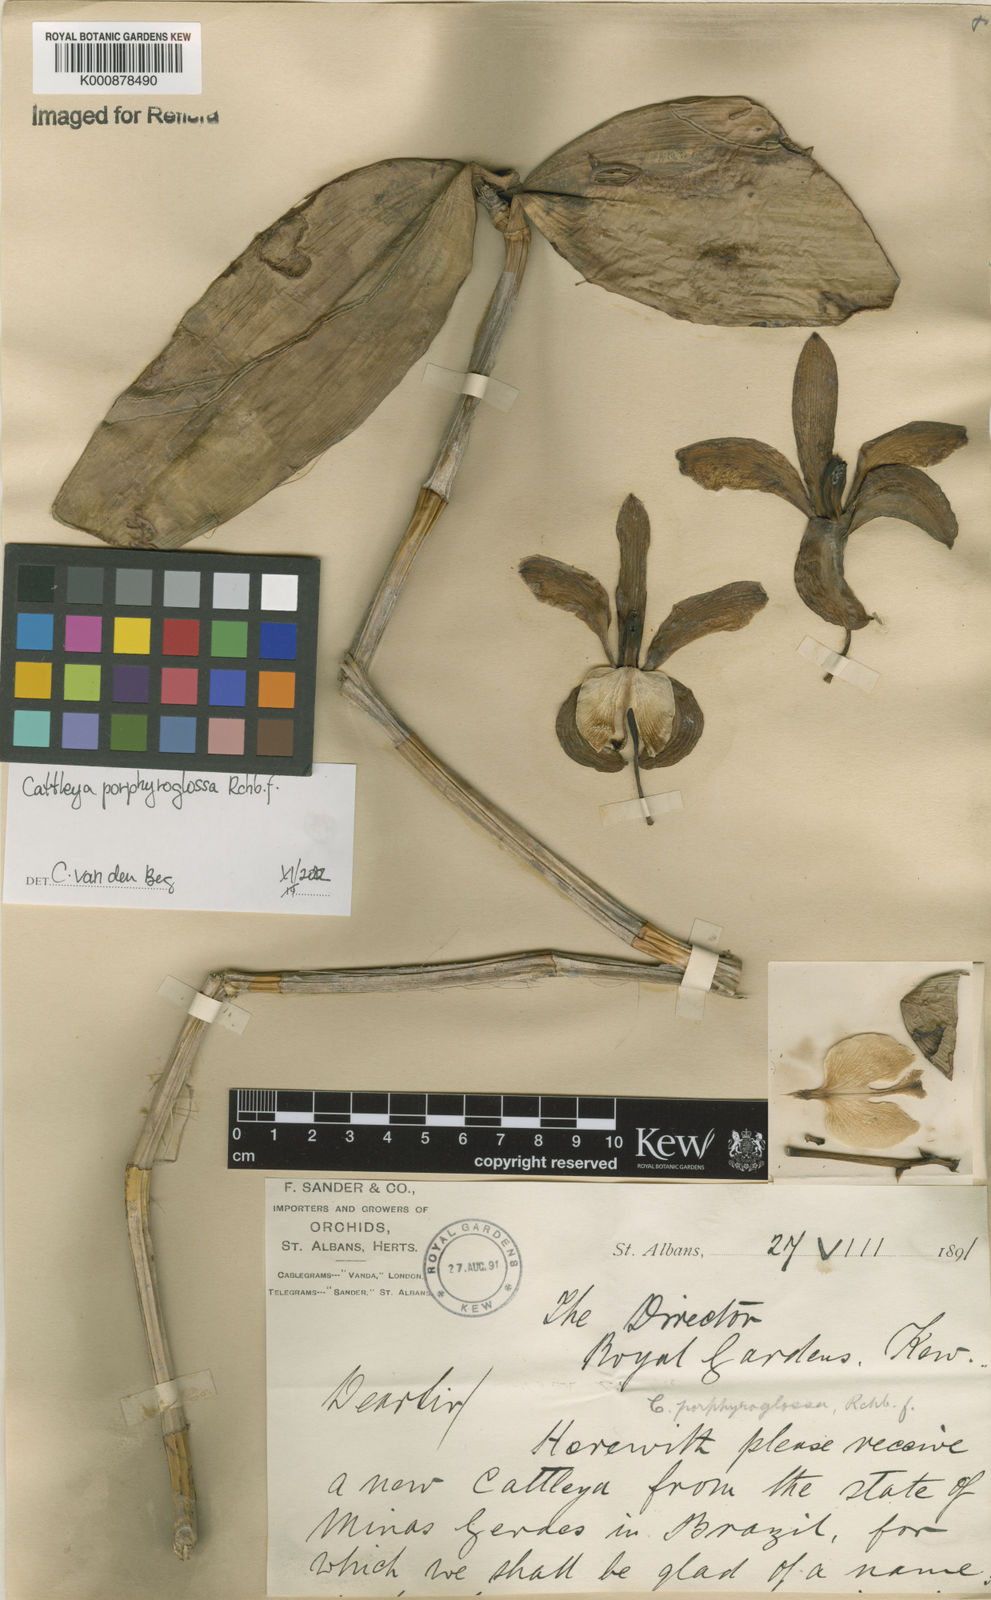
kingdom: Plantae
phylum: Tracheophyta
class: Liliopsida
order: Asparagales
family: Orchidaceae
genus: Cattleya
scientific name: Cattleya porphyroglossa
